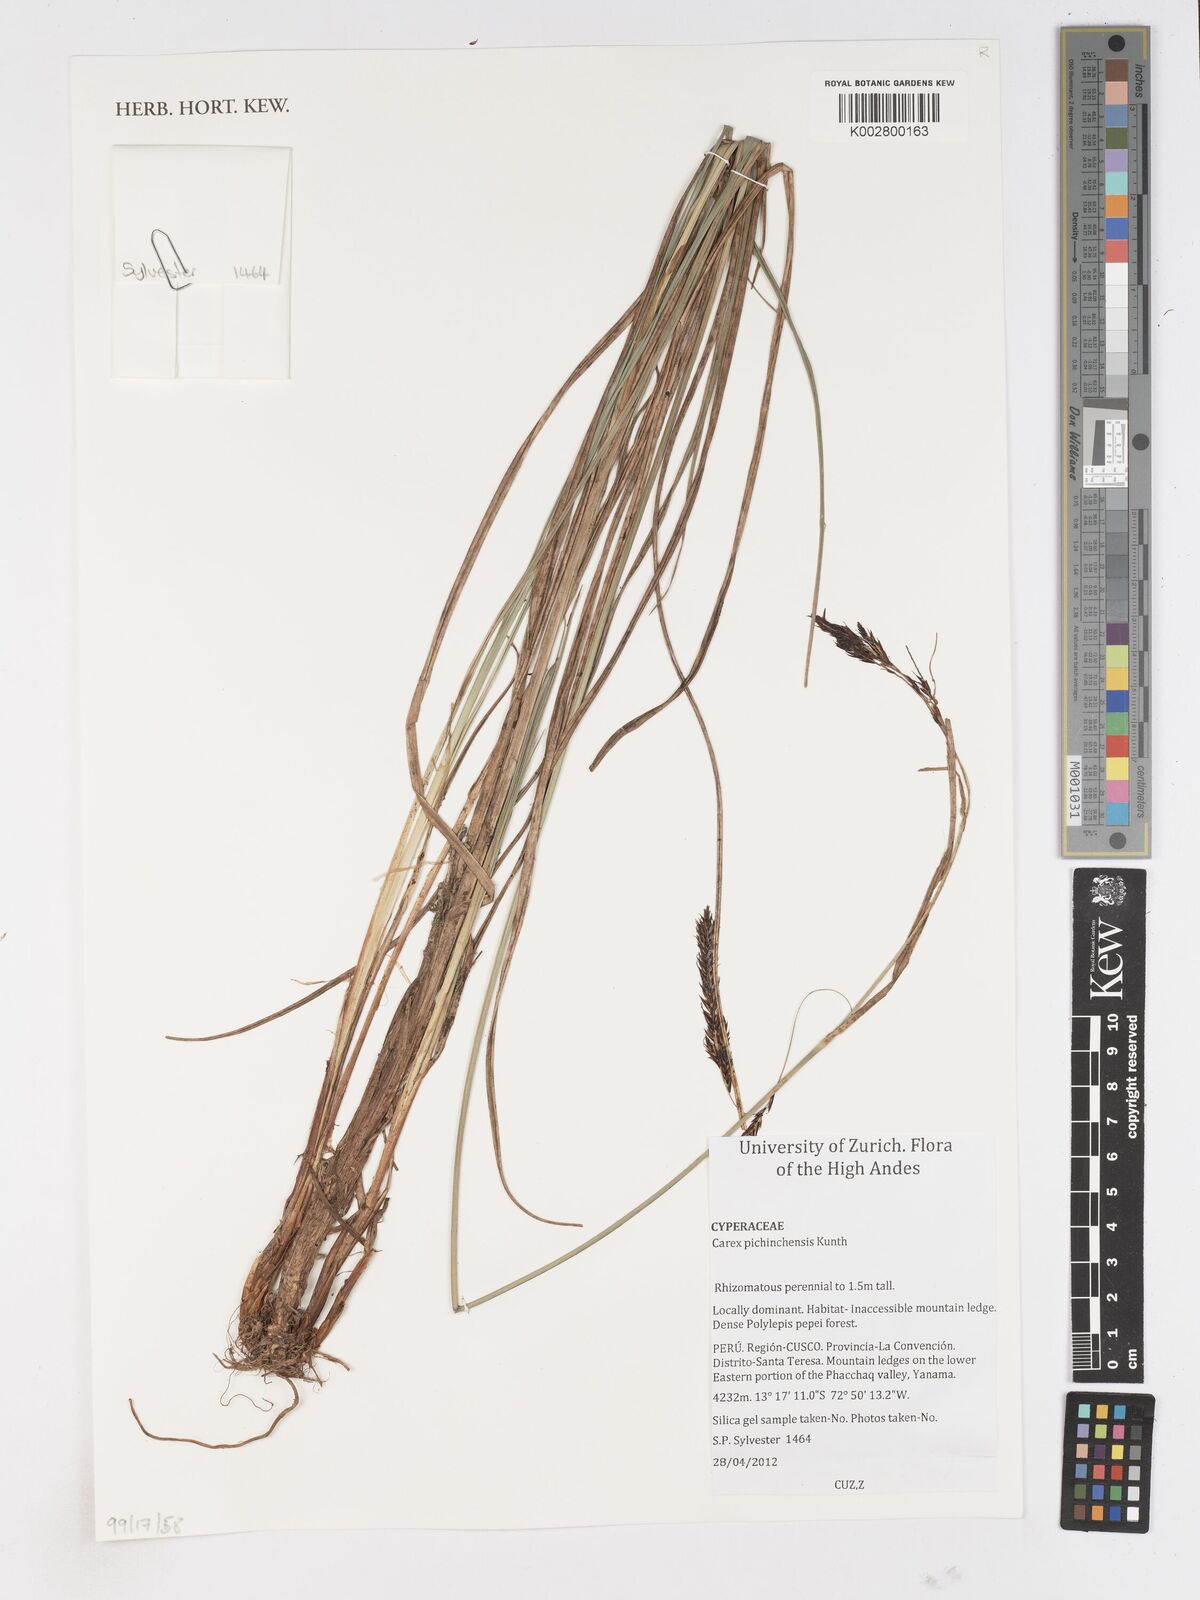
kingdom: Plantae
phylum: Tracheophyta
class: Liliopsida
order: Poales
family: Cyperaceae
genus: Carex
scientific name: Carex pichinchensis
